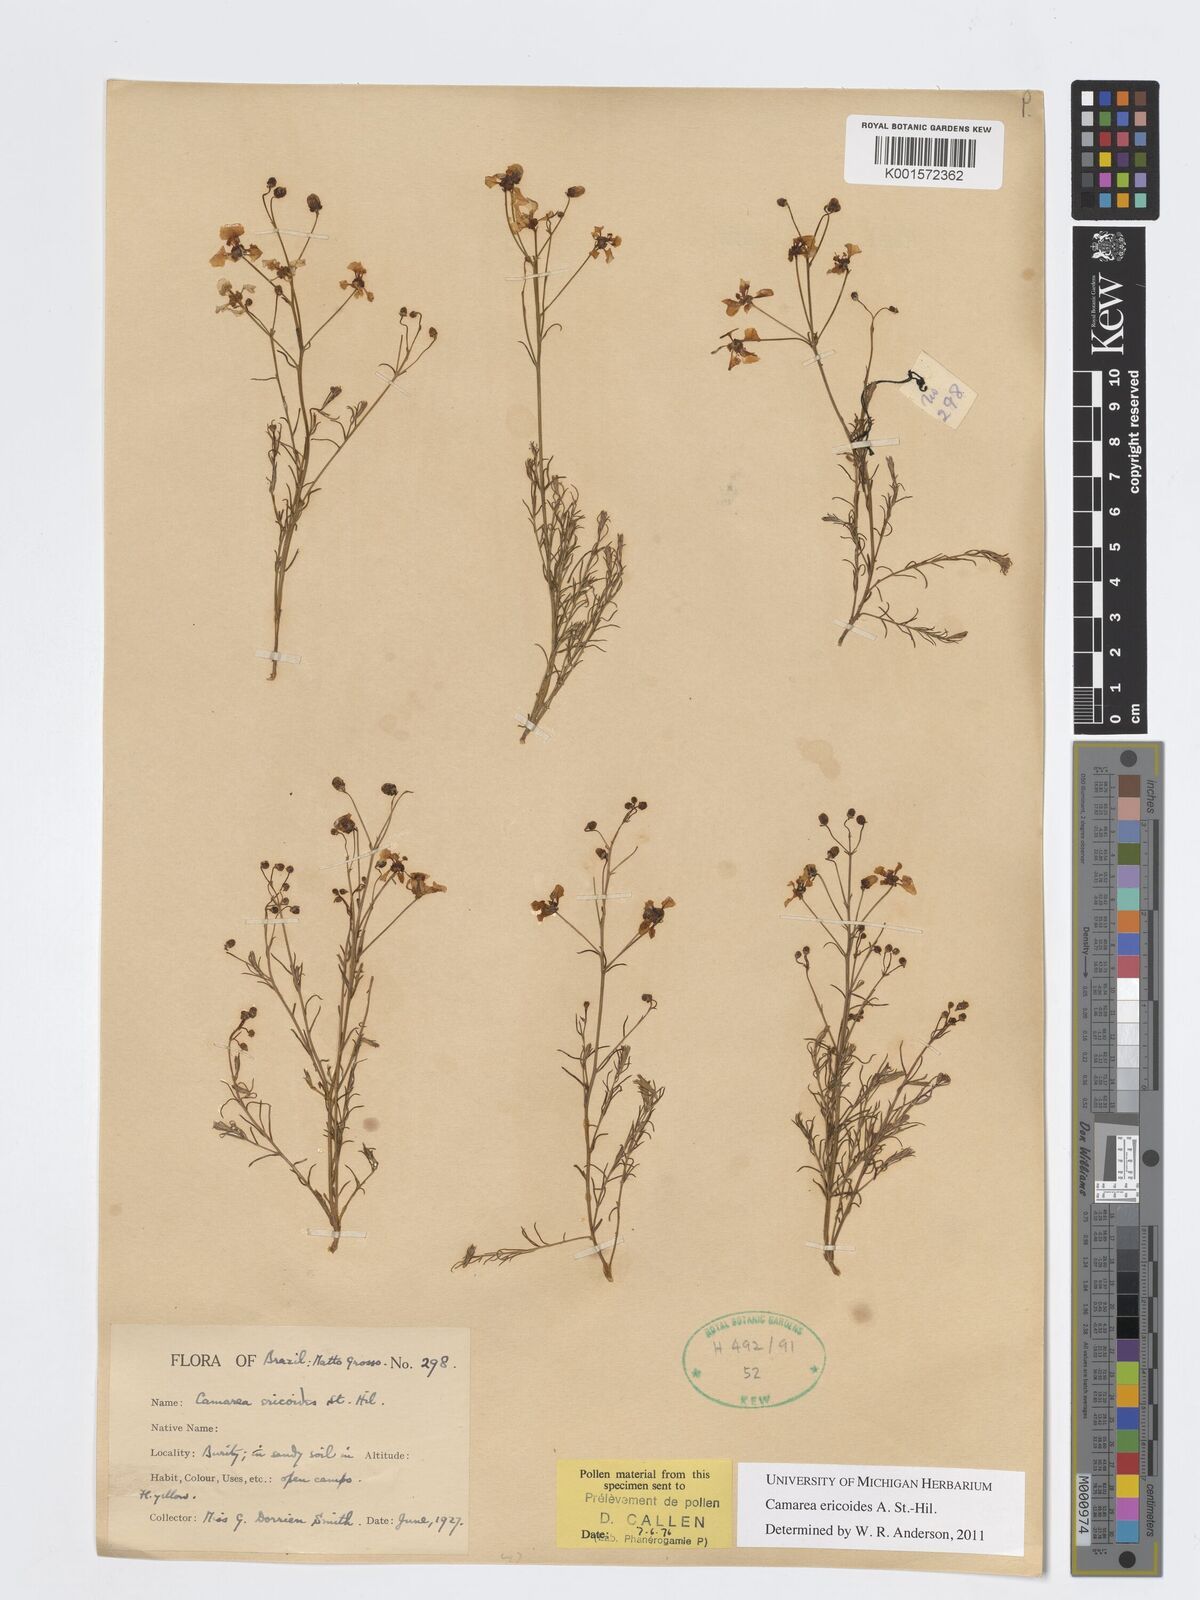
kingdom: Plantae
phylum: Tracheophyta
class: Magnoliopsida
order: Malpighiales
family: Malpighiaceae
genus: Camarea
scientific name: Camarea ericoides
